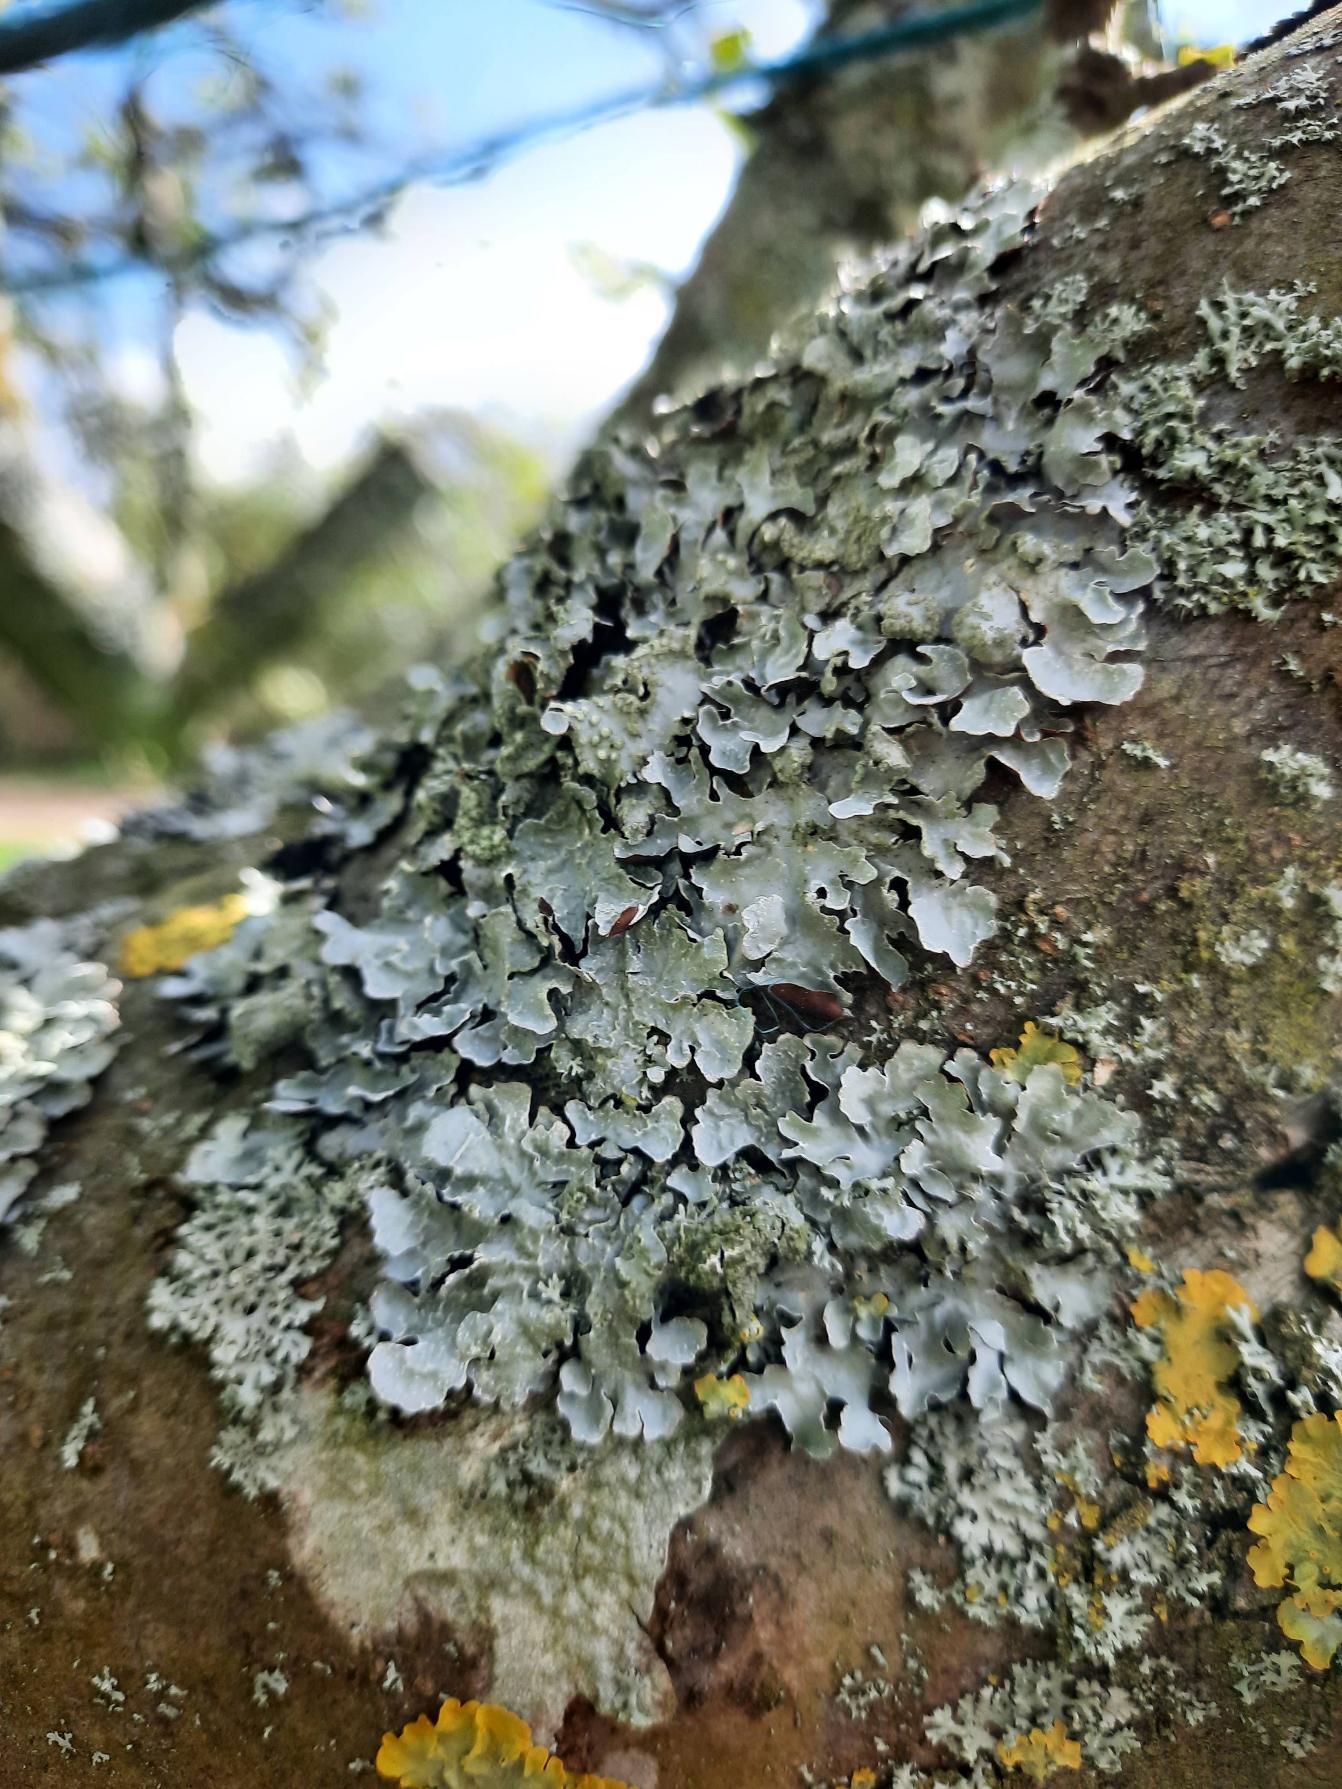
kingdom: Fungi
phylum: Ascomycota
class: Lecanoromycetes
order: Lecanorales
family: Parmeliaceae
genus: Parmelia
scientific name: Parmelia sulcata
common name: Rynket skållav
